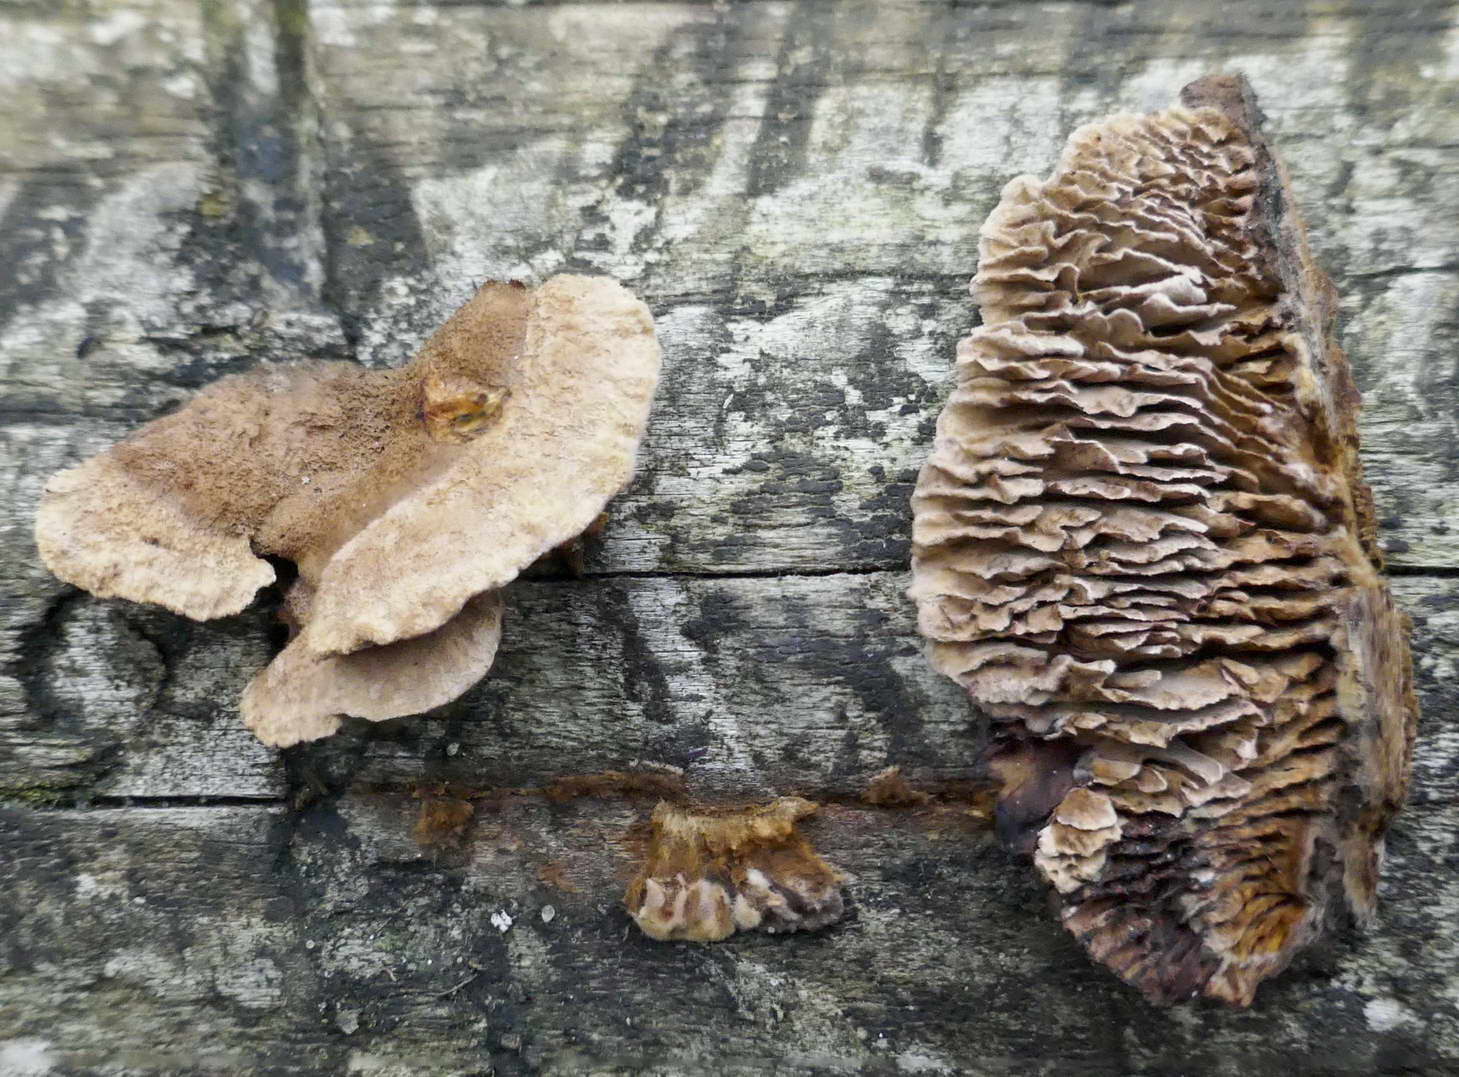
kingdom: Fungi
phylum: Basidiomycota
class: Agaricomycetes
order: Gloeophyllales
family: Gloeophyllaceae
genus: Gloeophyllum
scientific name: Gloeophyllum abietinum
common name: gran-korkhat
